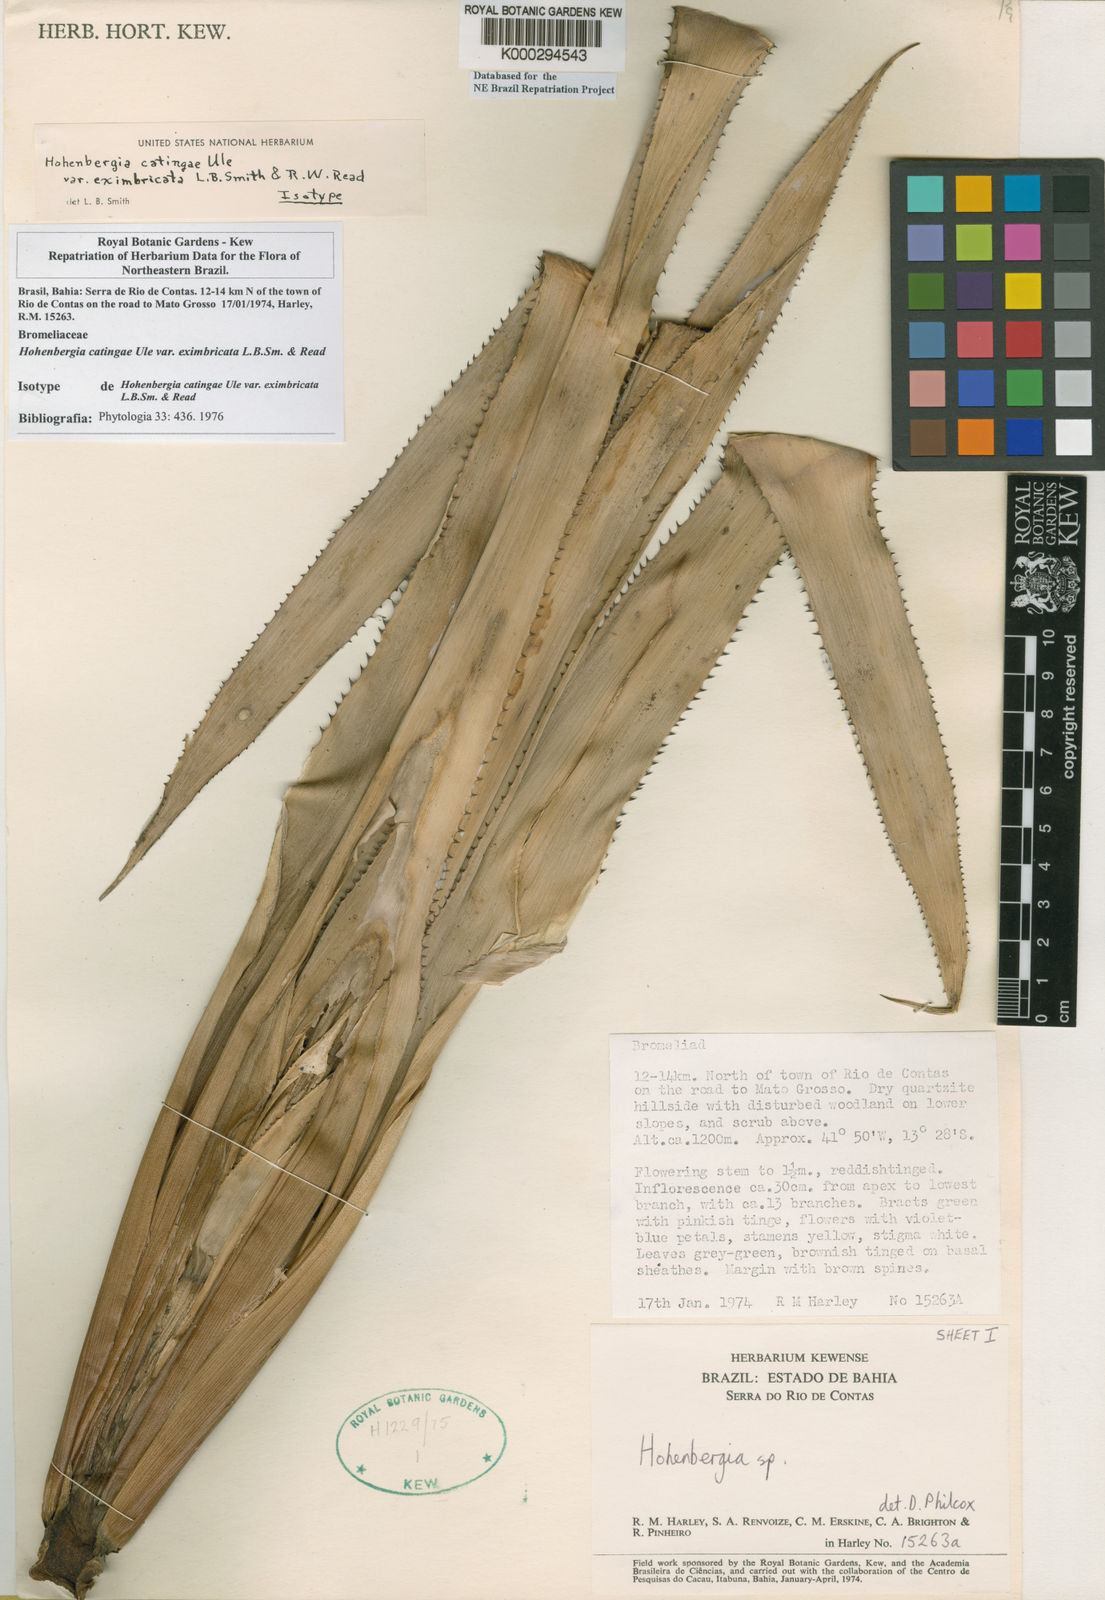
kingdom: Plantae
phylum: Tracheophyta
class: Liliopsida
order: Poales
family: Bromeliaceae
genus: Hohenbergia
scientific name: Hohenbergia catingae
